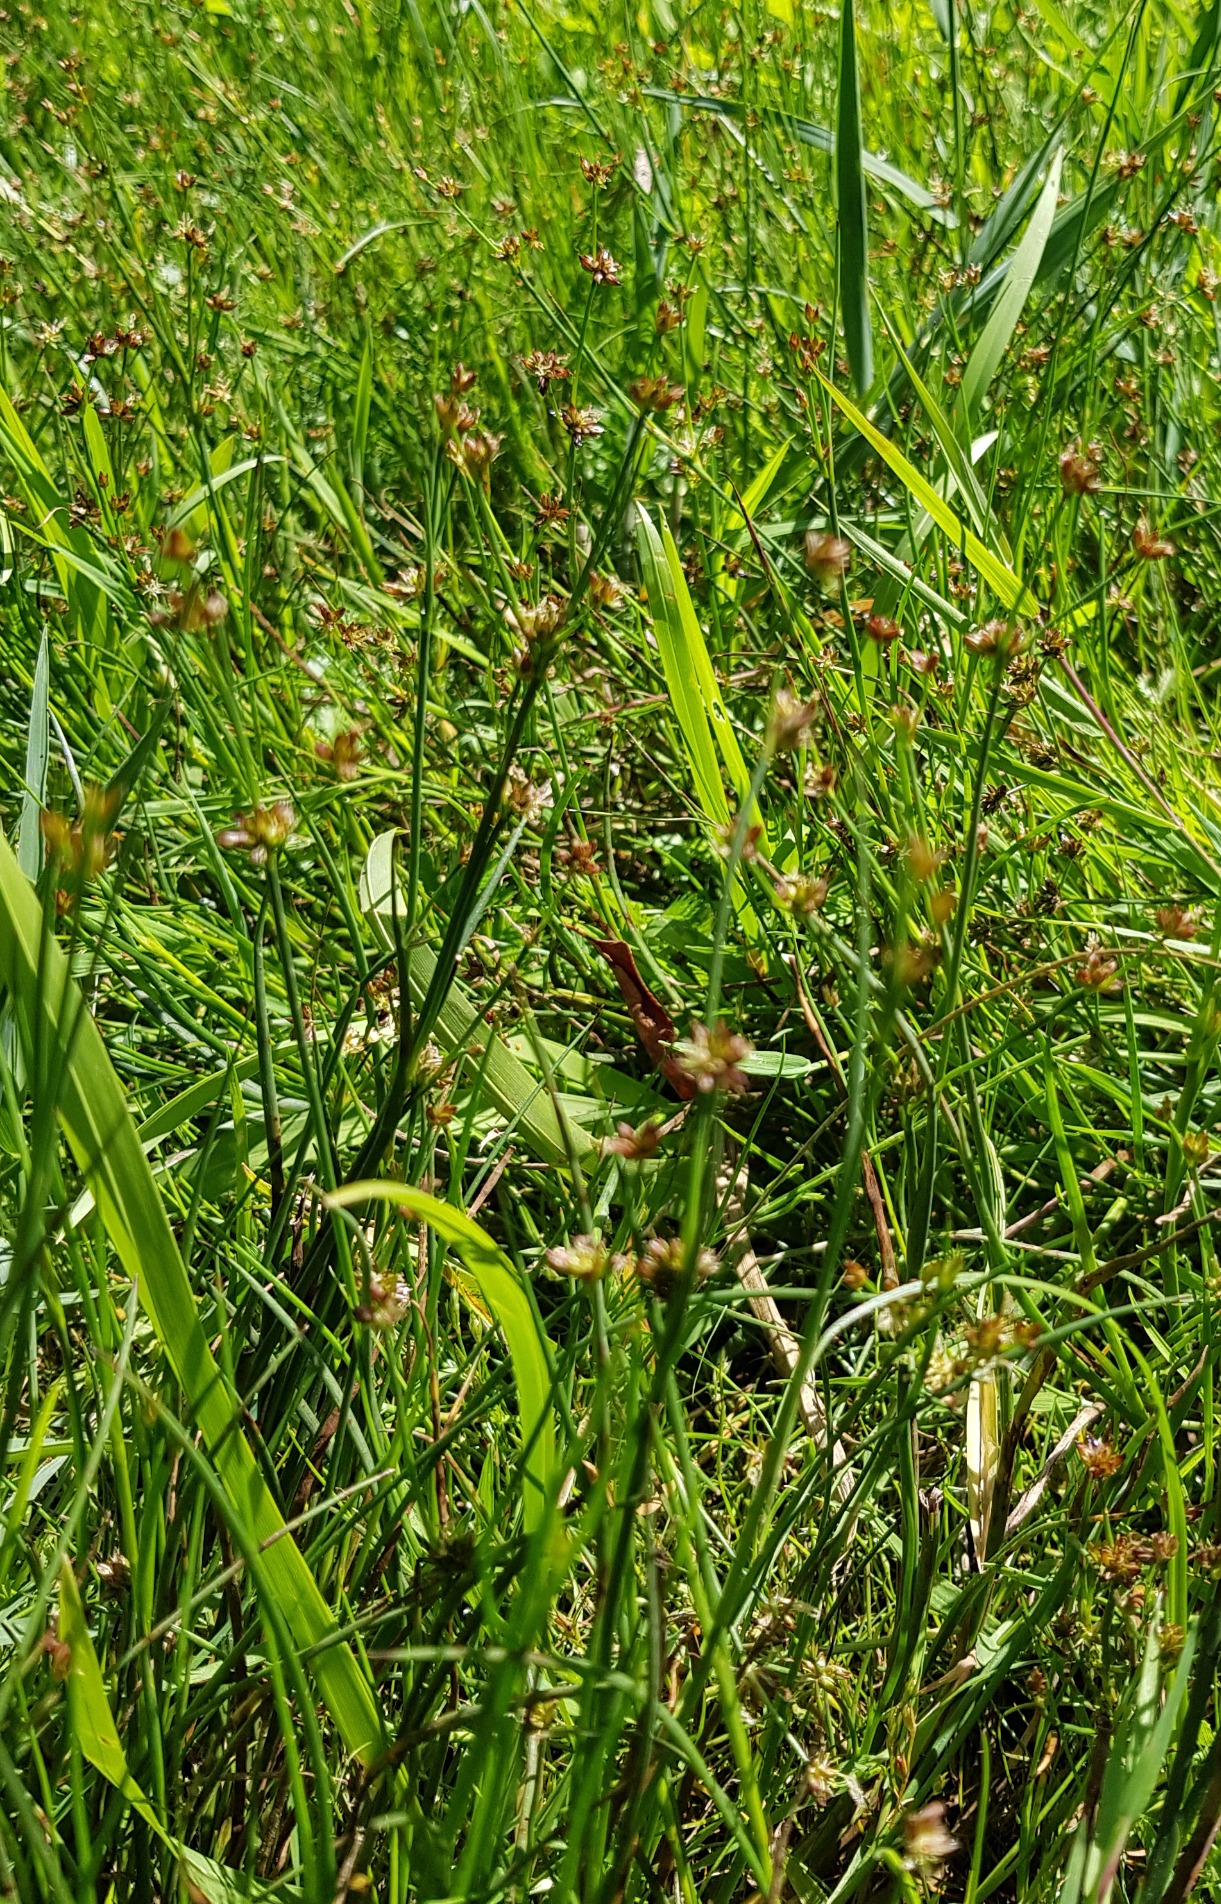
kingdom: Plantae
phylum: Tracheophyta
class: Liliopsida
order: Poales
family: Juncaceae
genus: Juncus
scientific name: Juncus articulatus
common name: Glanskapslet siv
